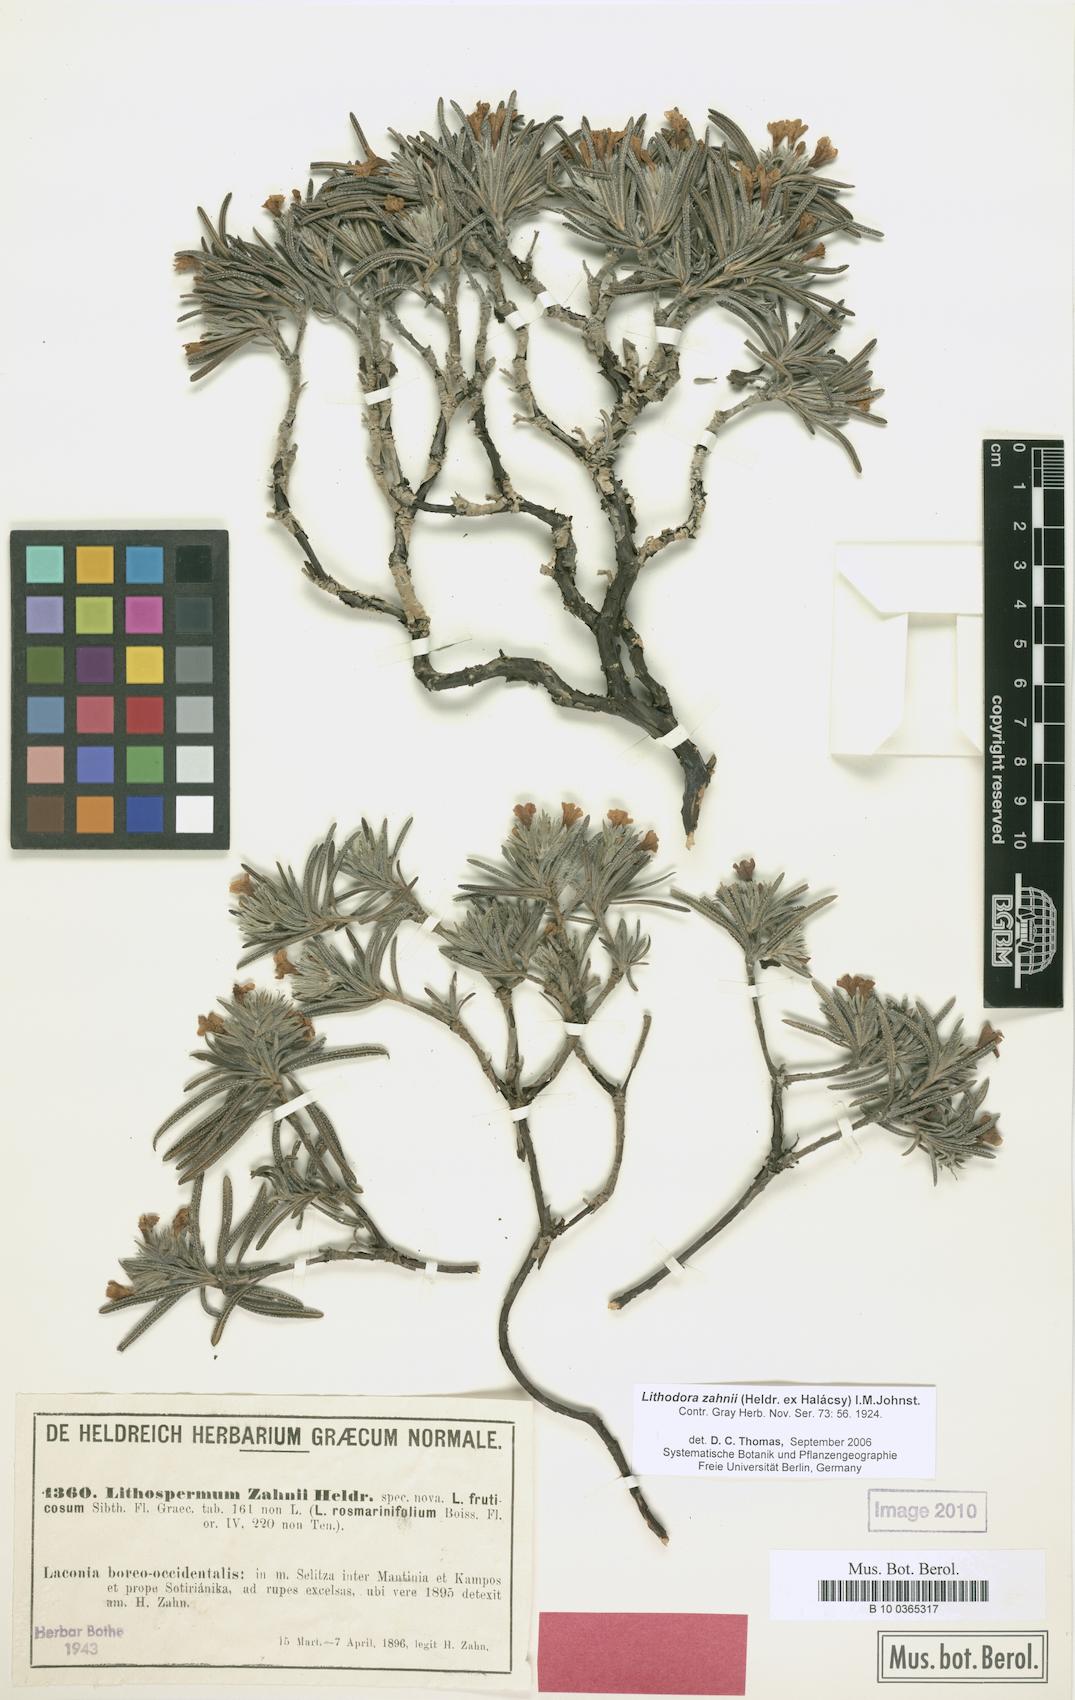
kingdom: Plantae
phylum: Tracheophyta
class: Magnoliopsida
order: Boraginales
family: Boraginaceae
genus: Lithodora
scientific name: Lithodora zahnii
